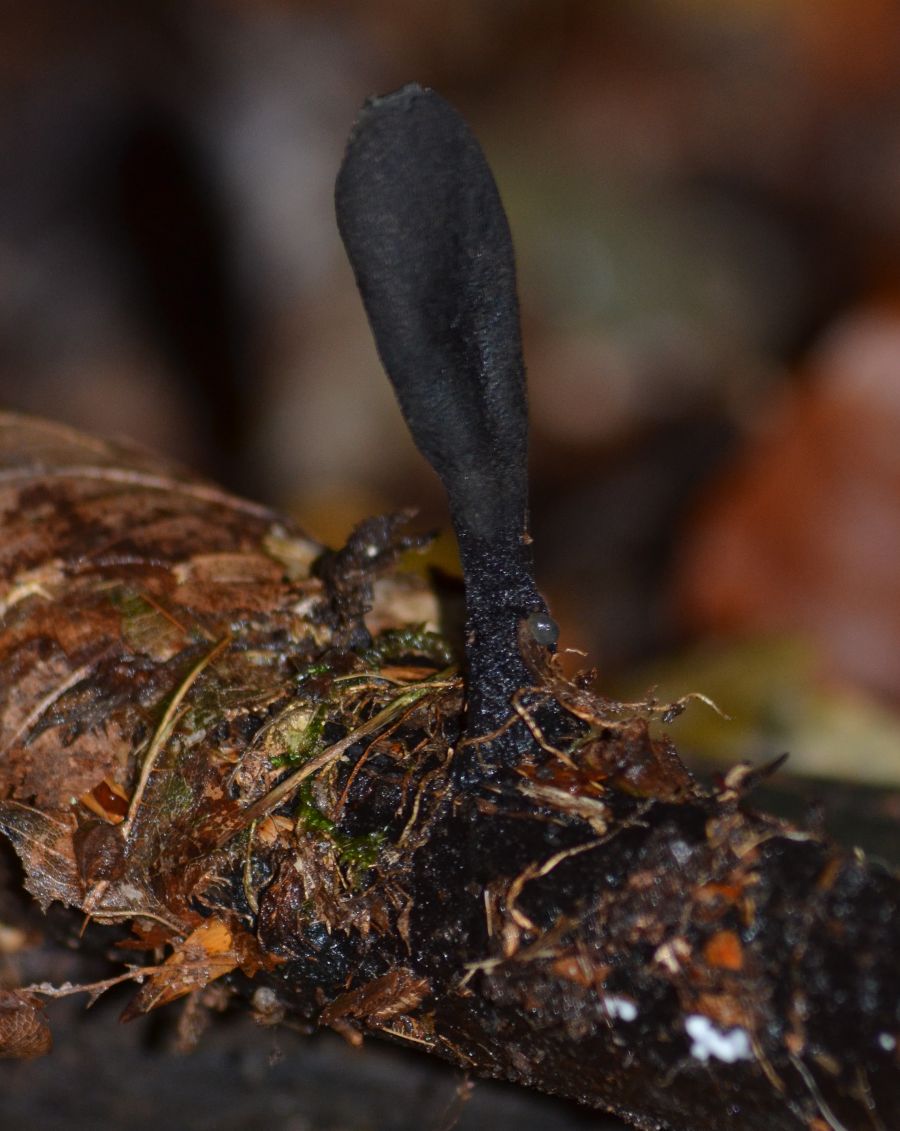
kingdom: Fungi
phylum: Ascomycota
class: Sordariomycetes
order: Xylariales
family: Xylariaceae
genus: Xylaria
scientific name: Xylaria longipes
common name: slank stødsvamp
